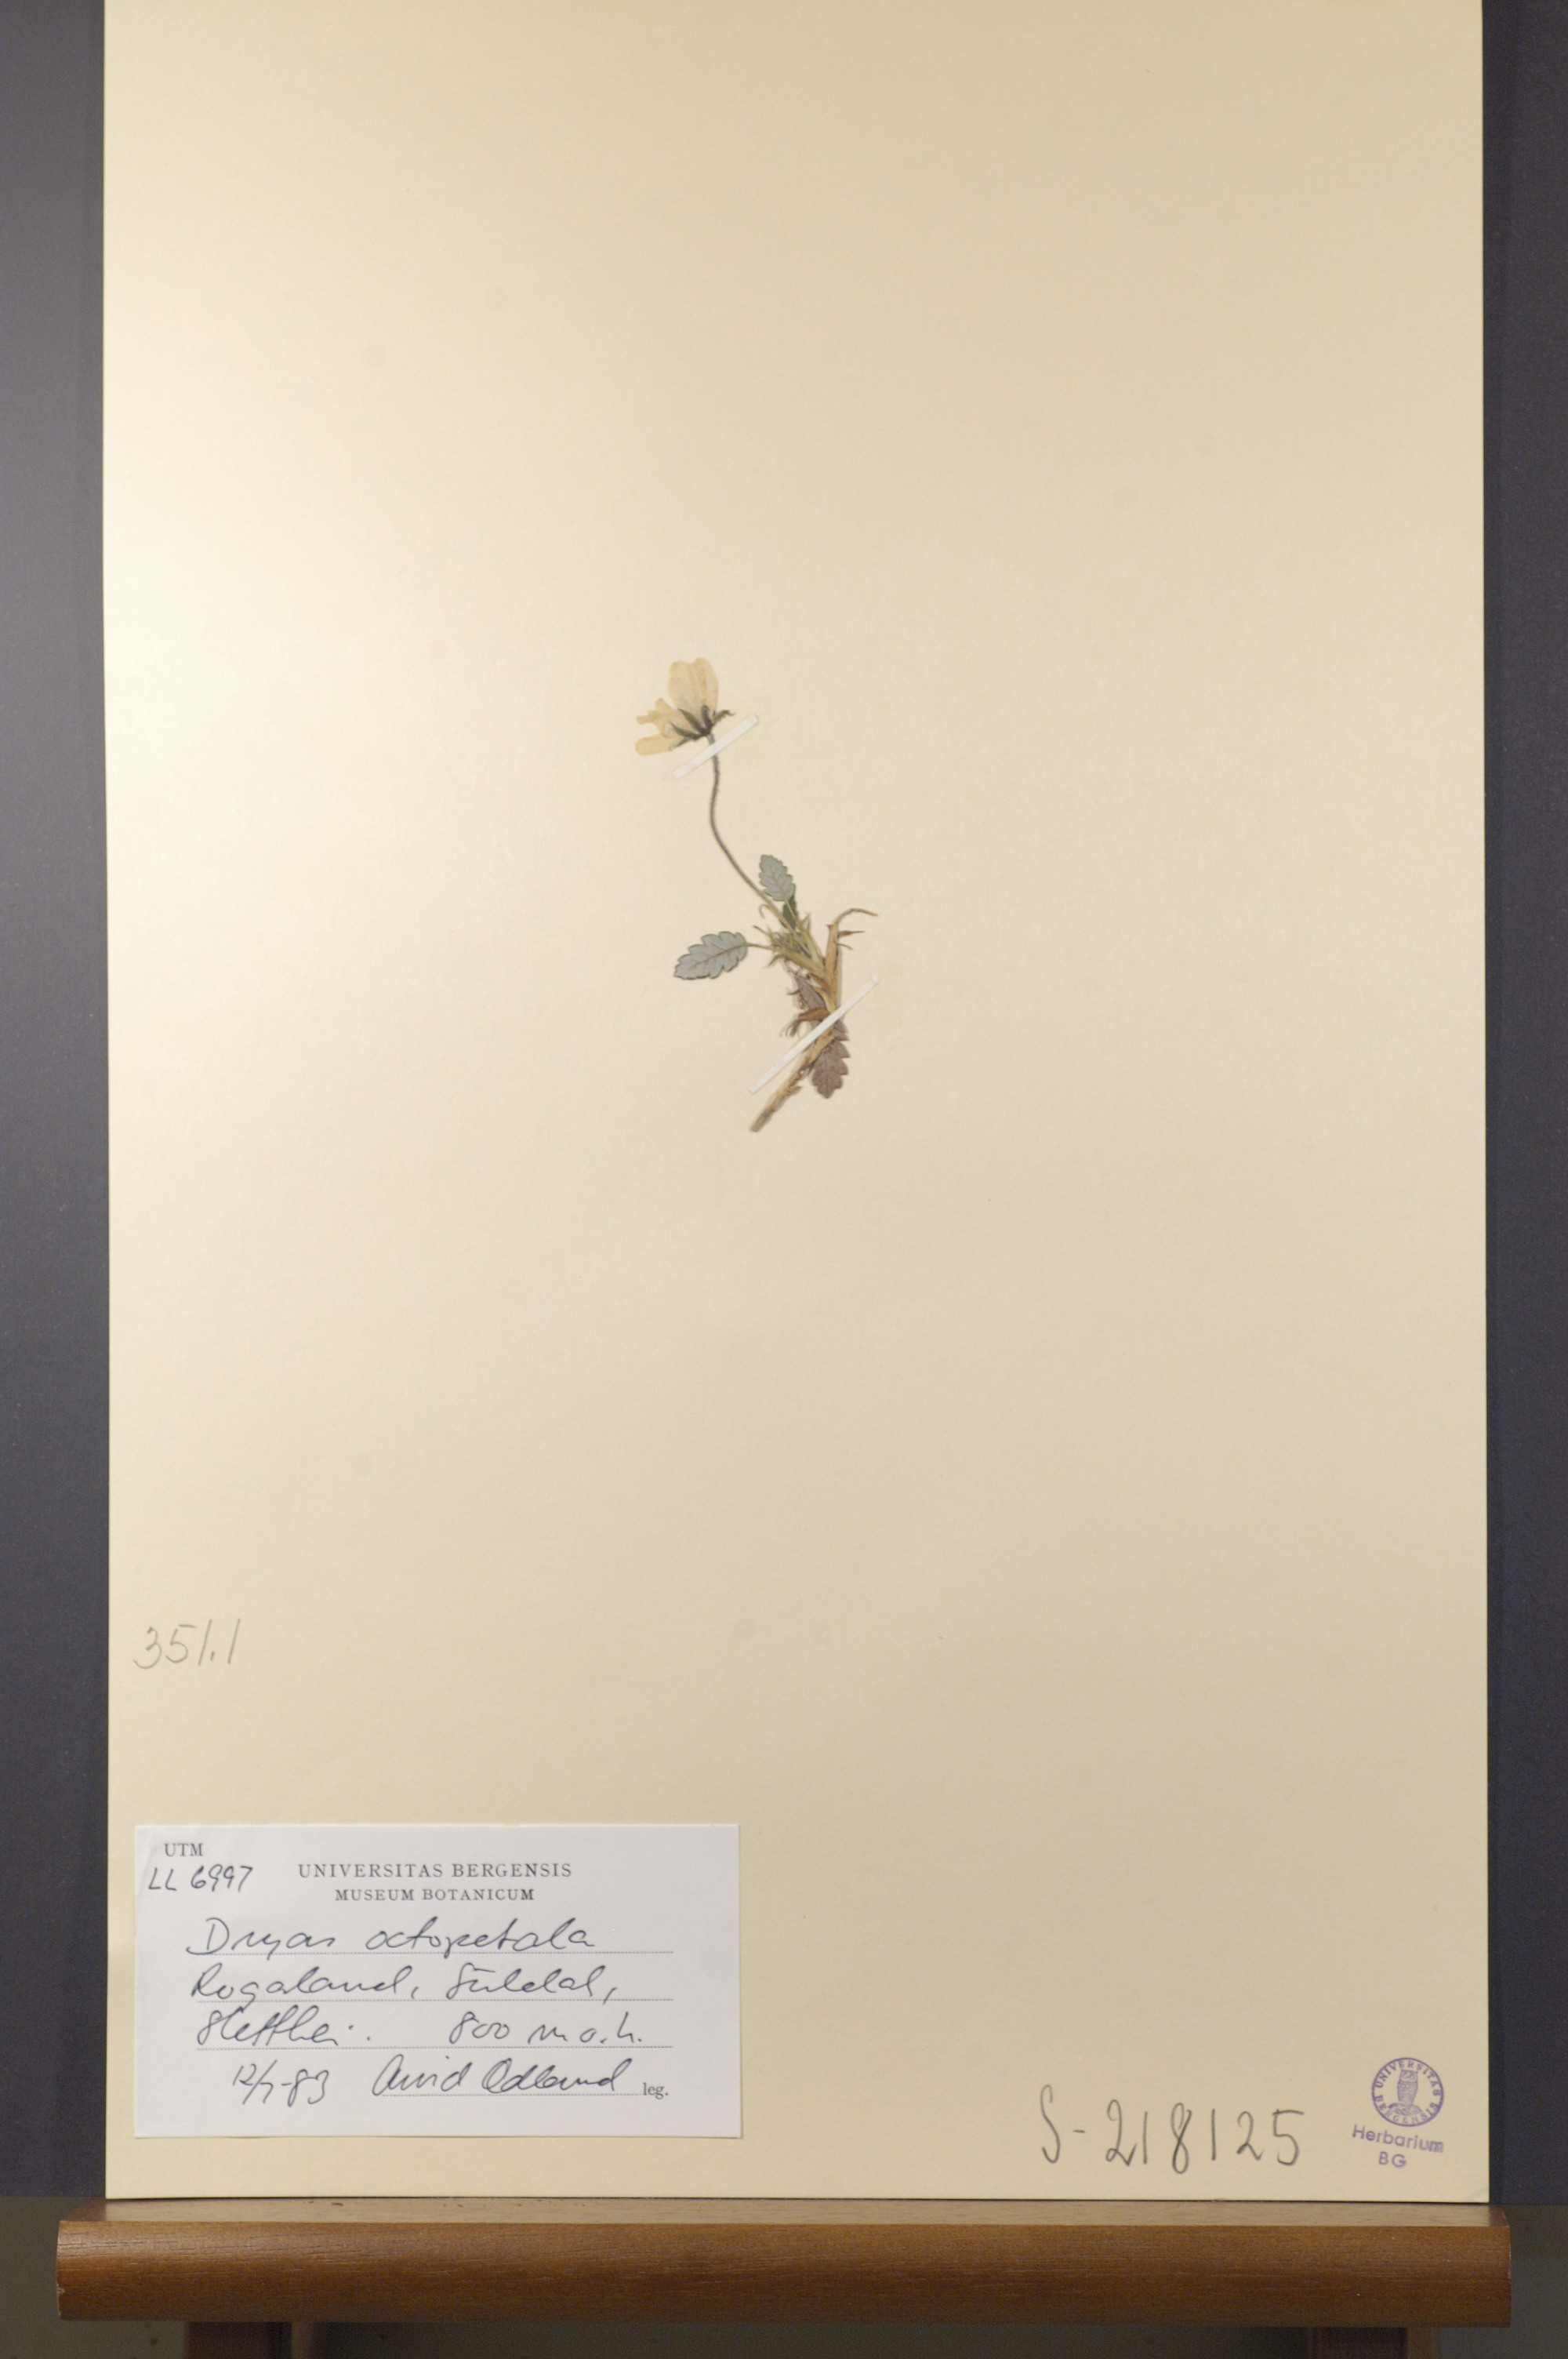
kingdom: Plantae
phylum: Tracheophyta
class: Magnoliopsida
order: Rosales
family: Rosaceae
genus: Dryas
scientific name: Dryas octopetala
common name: Eight-petal mountain-avens
